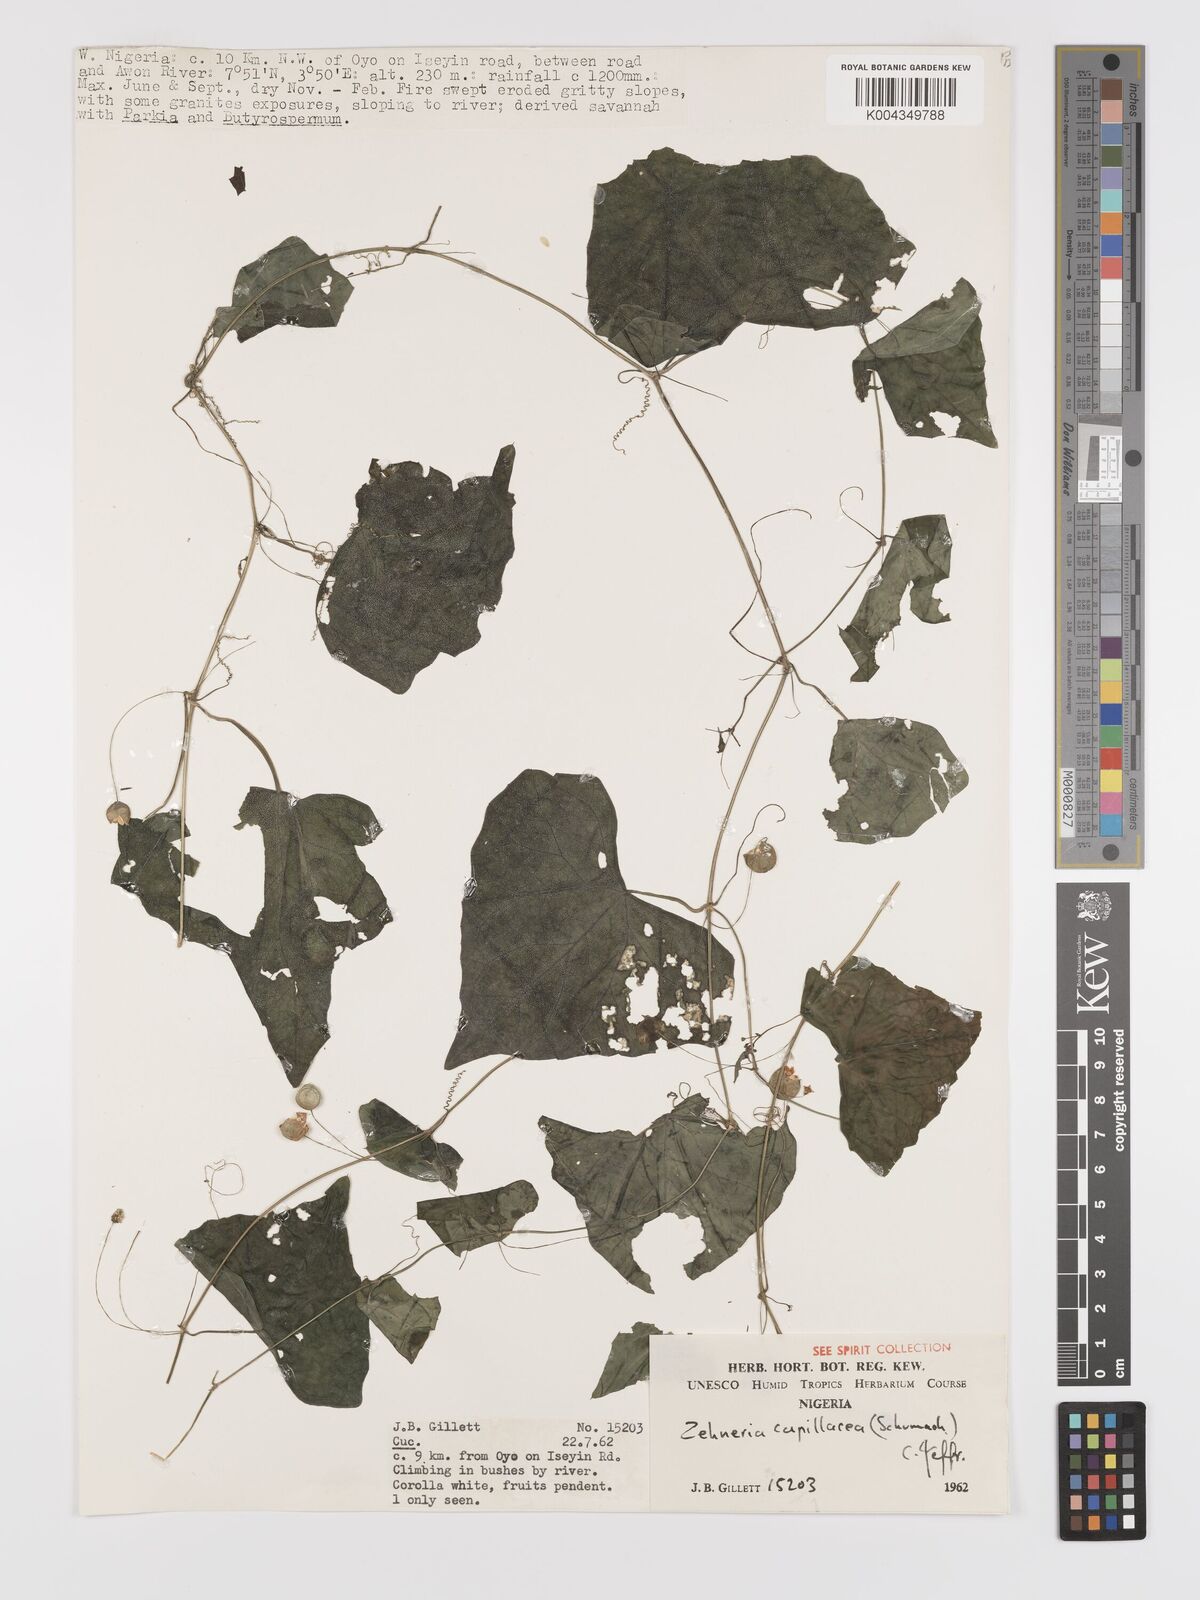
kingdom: Plantae
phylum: Tracheophyta
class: Magnoliopsida
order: Cucurbitales
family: Cucurbitaceae
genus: Zehneria
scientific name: Zehneria capillacea
